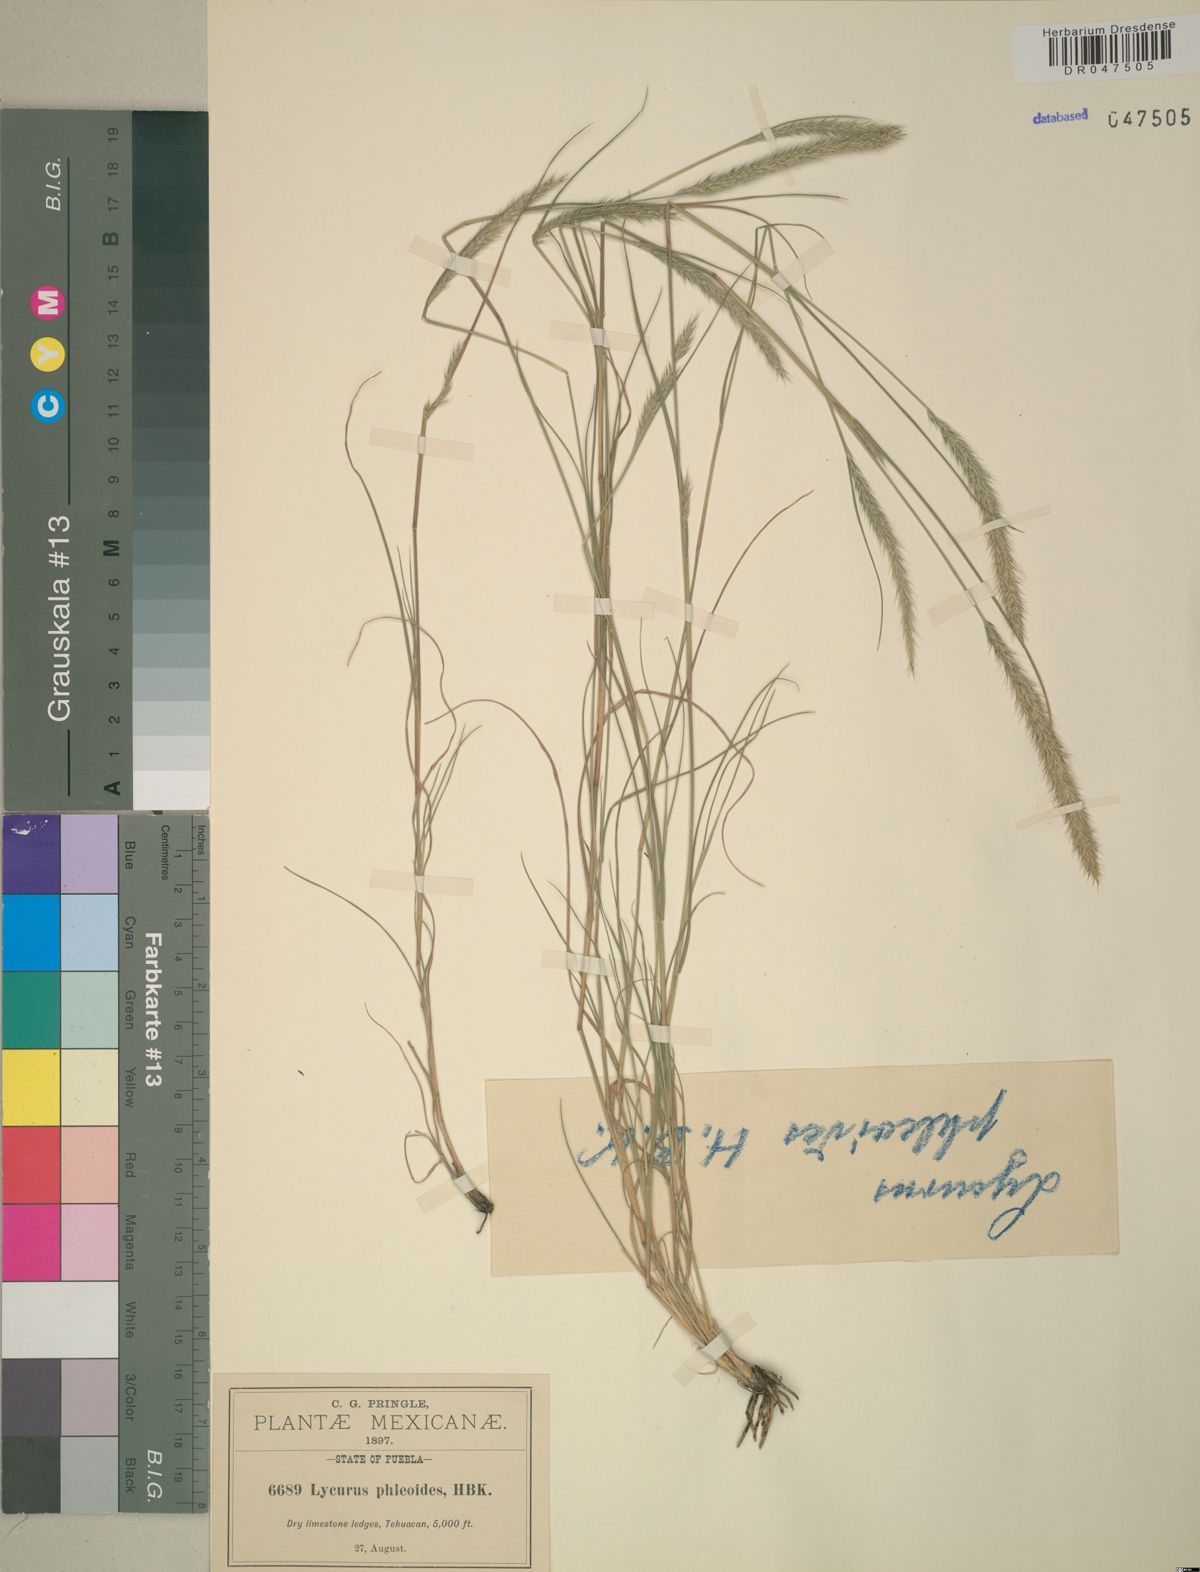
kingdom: Plantae
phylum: Tracheophyta
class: Liliopsida
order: Poales
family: Poaceae
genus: Muhlenbergia
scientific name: Muhlenbergia phleoides
